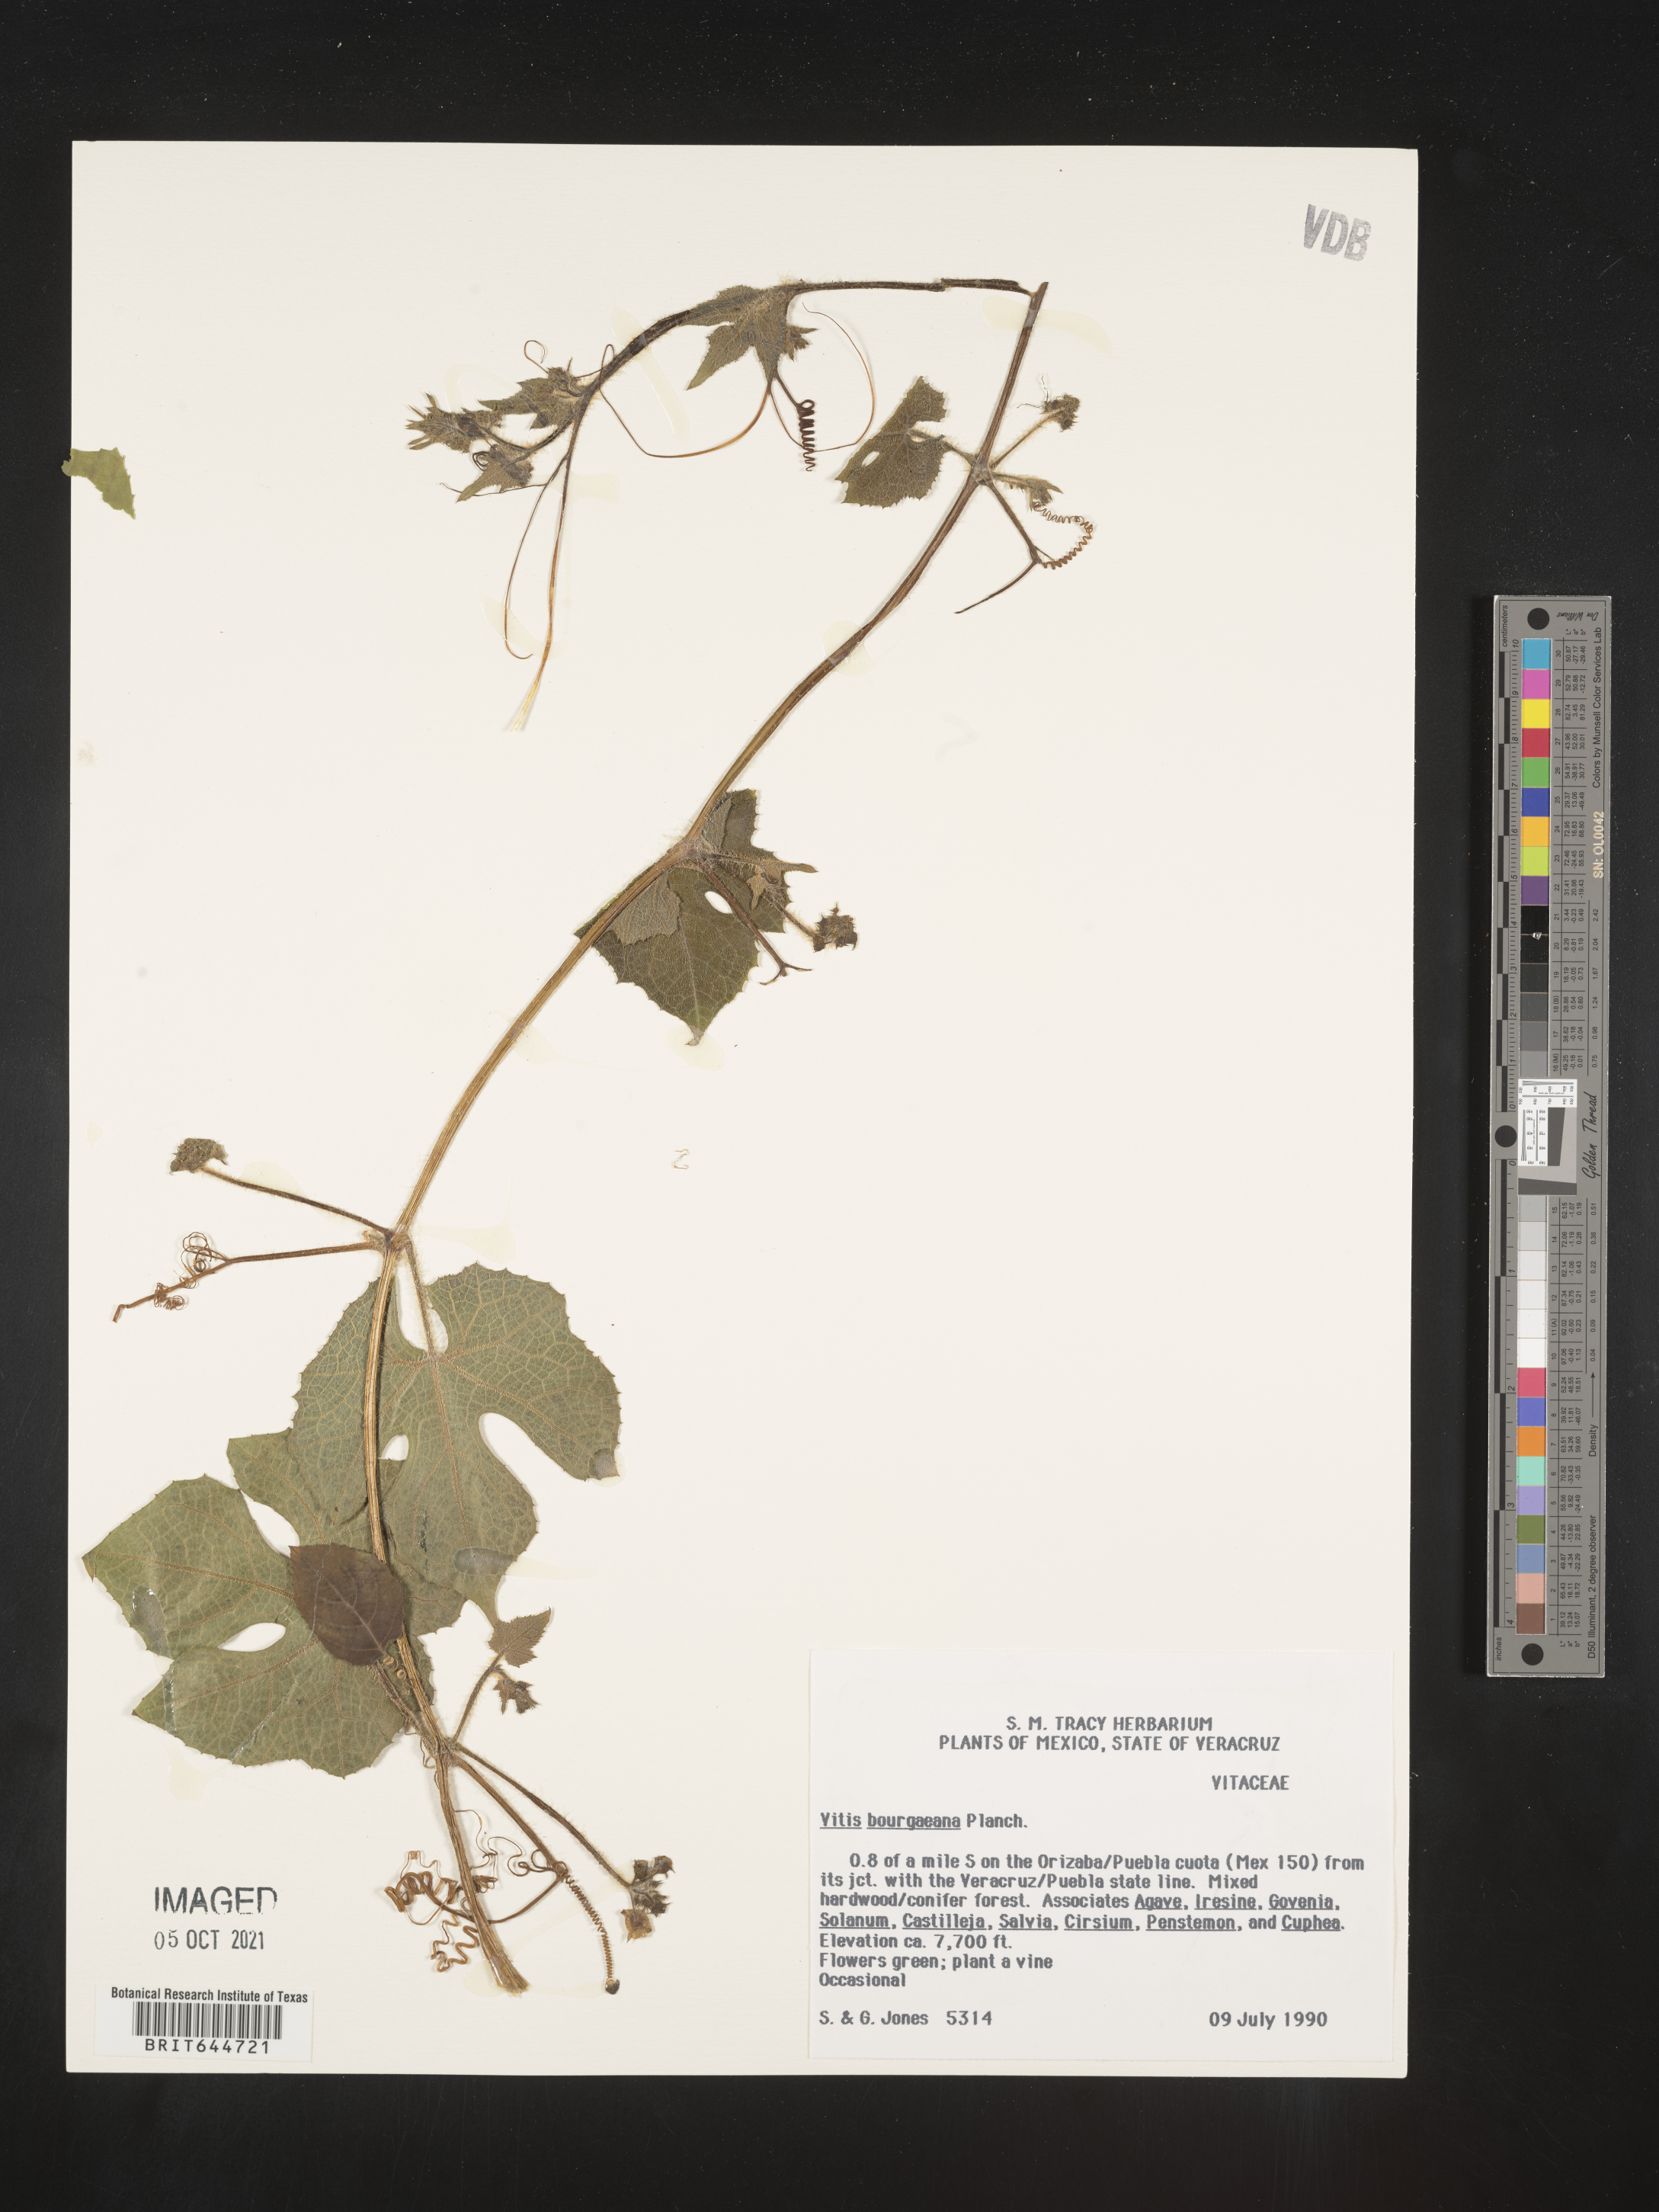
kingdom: Plantae
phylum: Tracheophyta
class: Magnoliopsida
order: Vitales
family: Vitaceae
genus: Vitis
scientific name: Vitis
